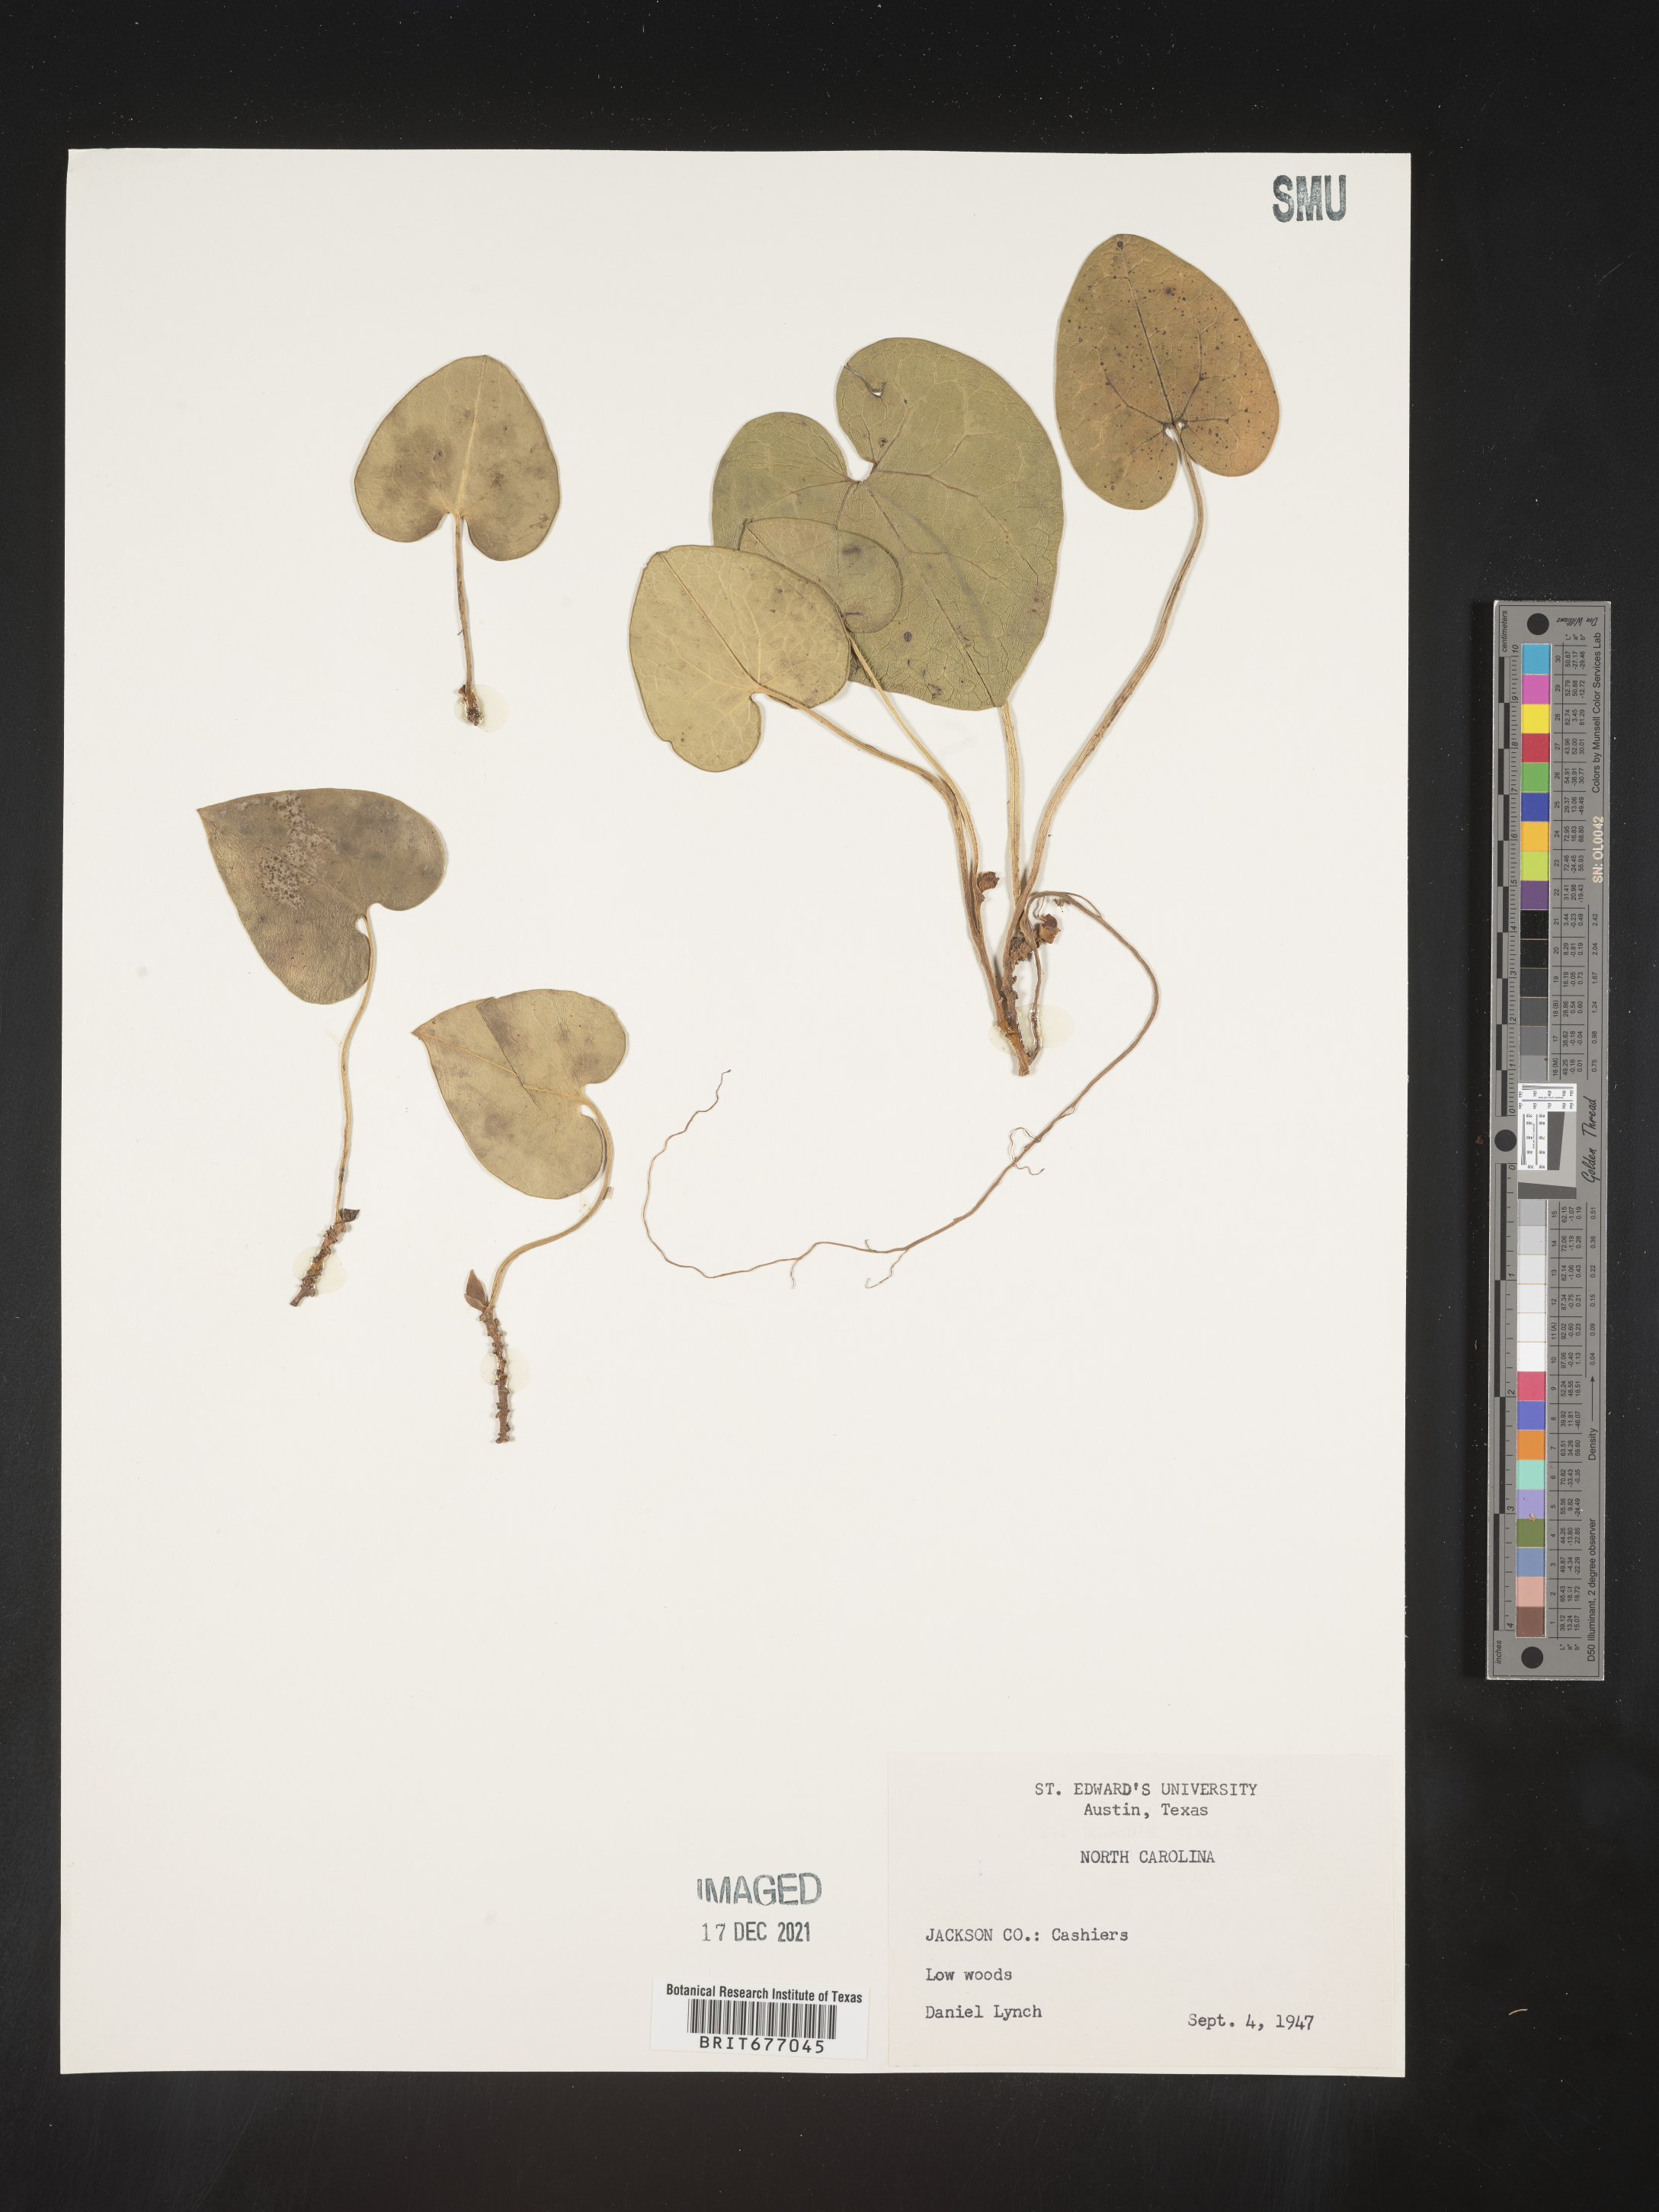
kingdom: Plantae
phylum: Tracheophyta
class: Magnoliopsida
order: Piperales
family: Aristolochiaceae
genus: Asarum
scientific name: Asarum
